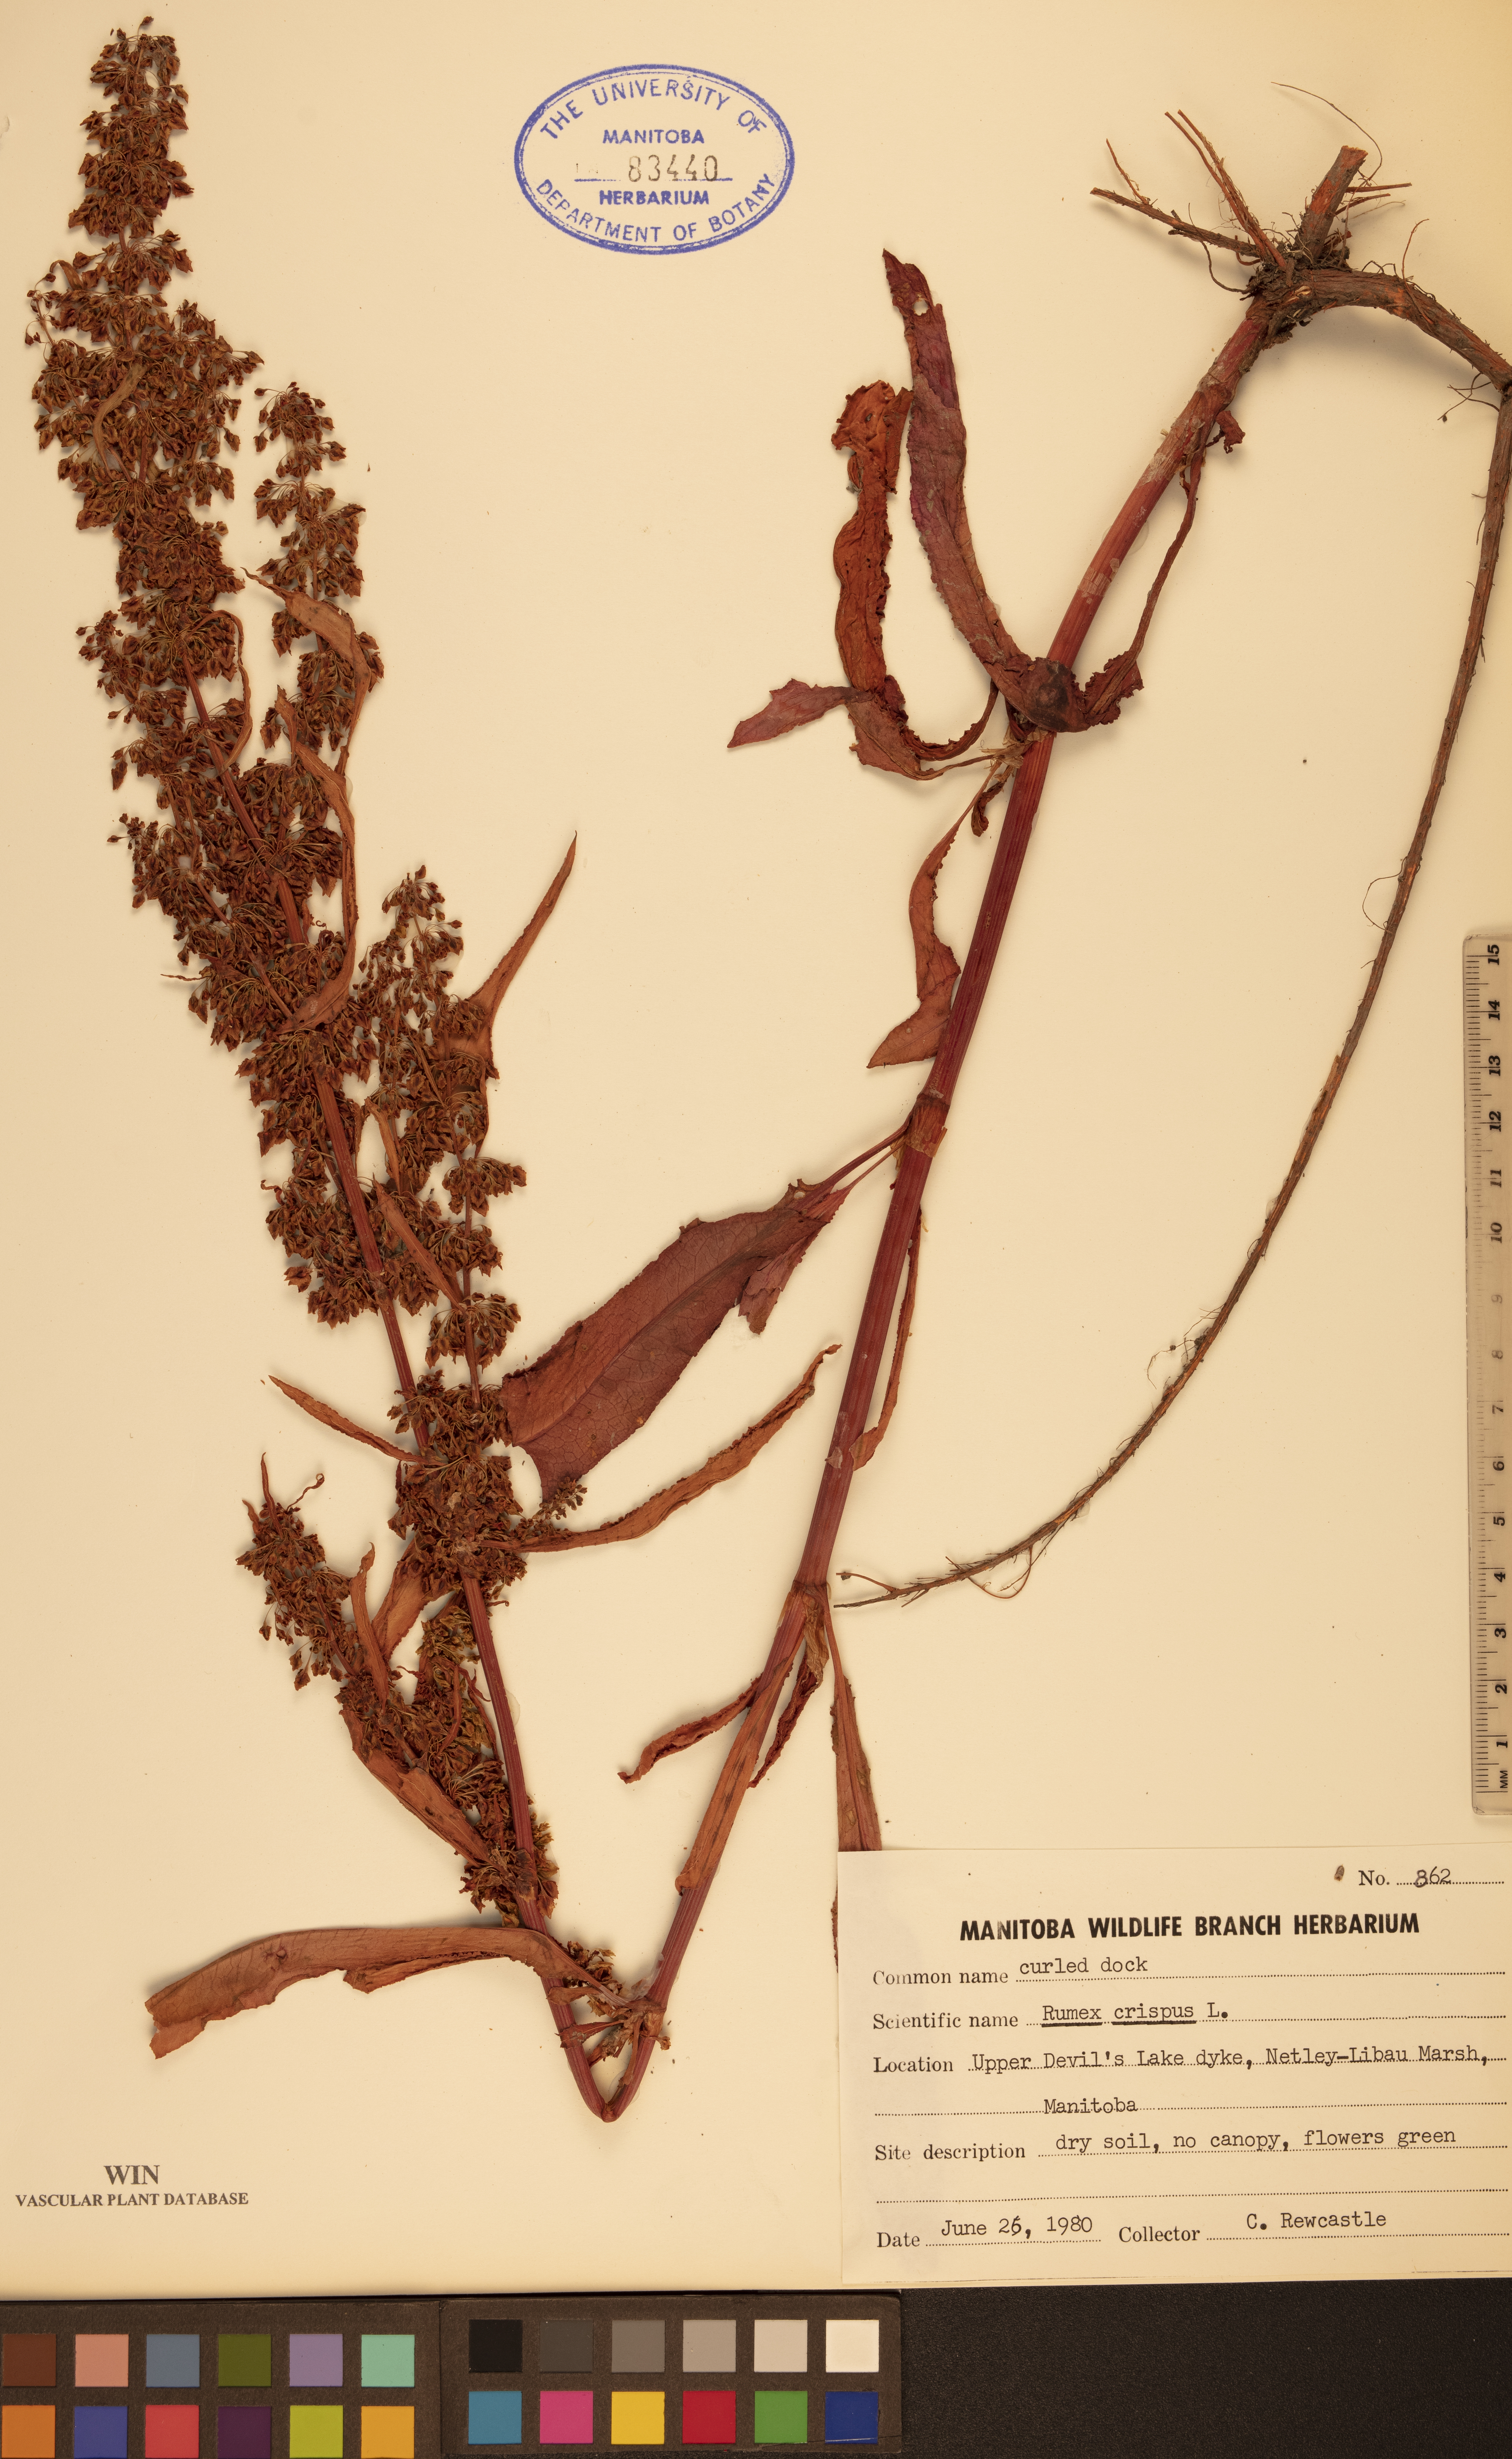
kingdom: Plantae
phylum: Tracheophyta
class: Magnoliopsida
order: Caryophyllales
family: Polygonaceae
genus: Rumex
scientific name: Rumex crispus
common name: Curled dock
